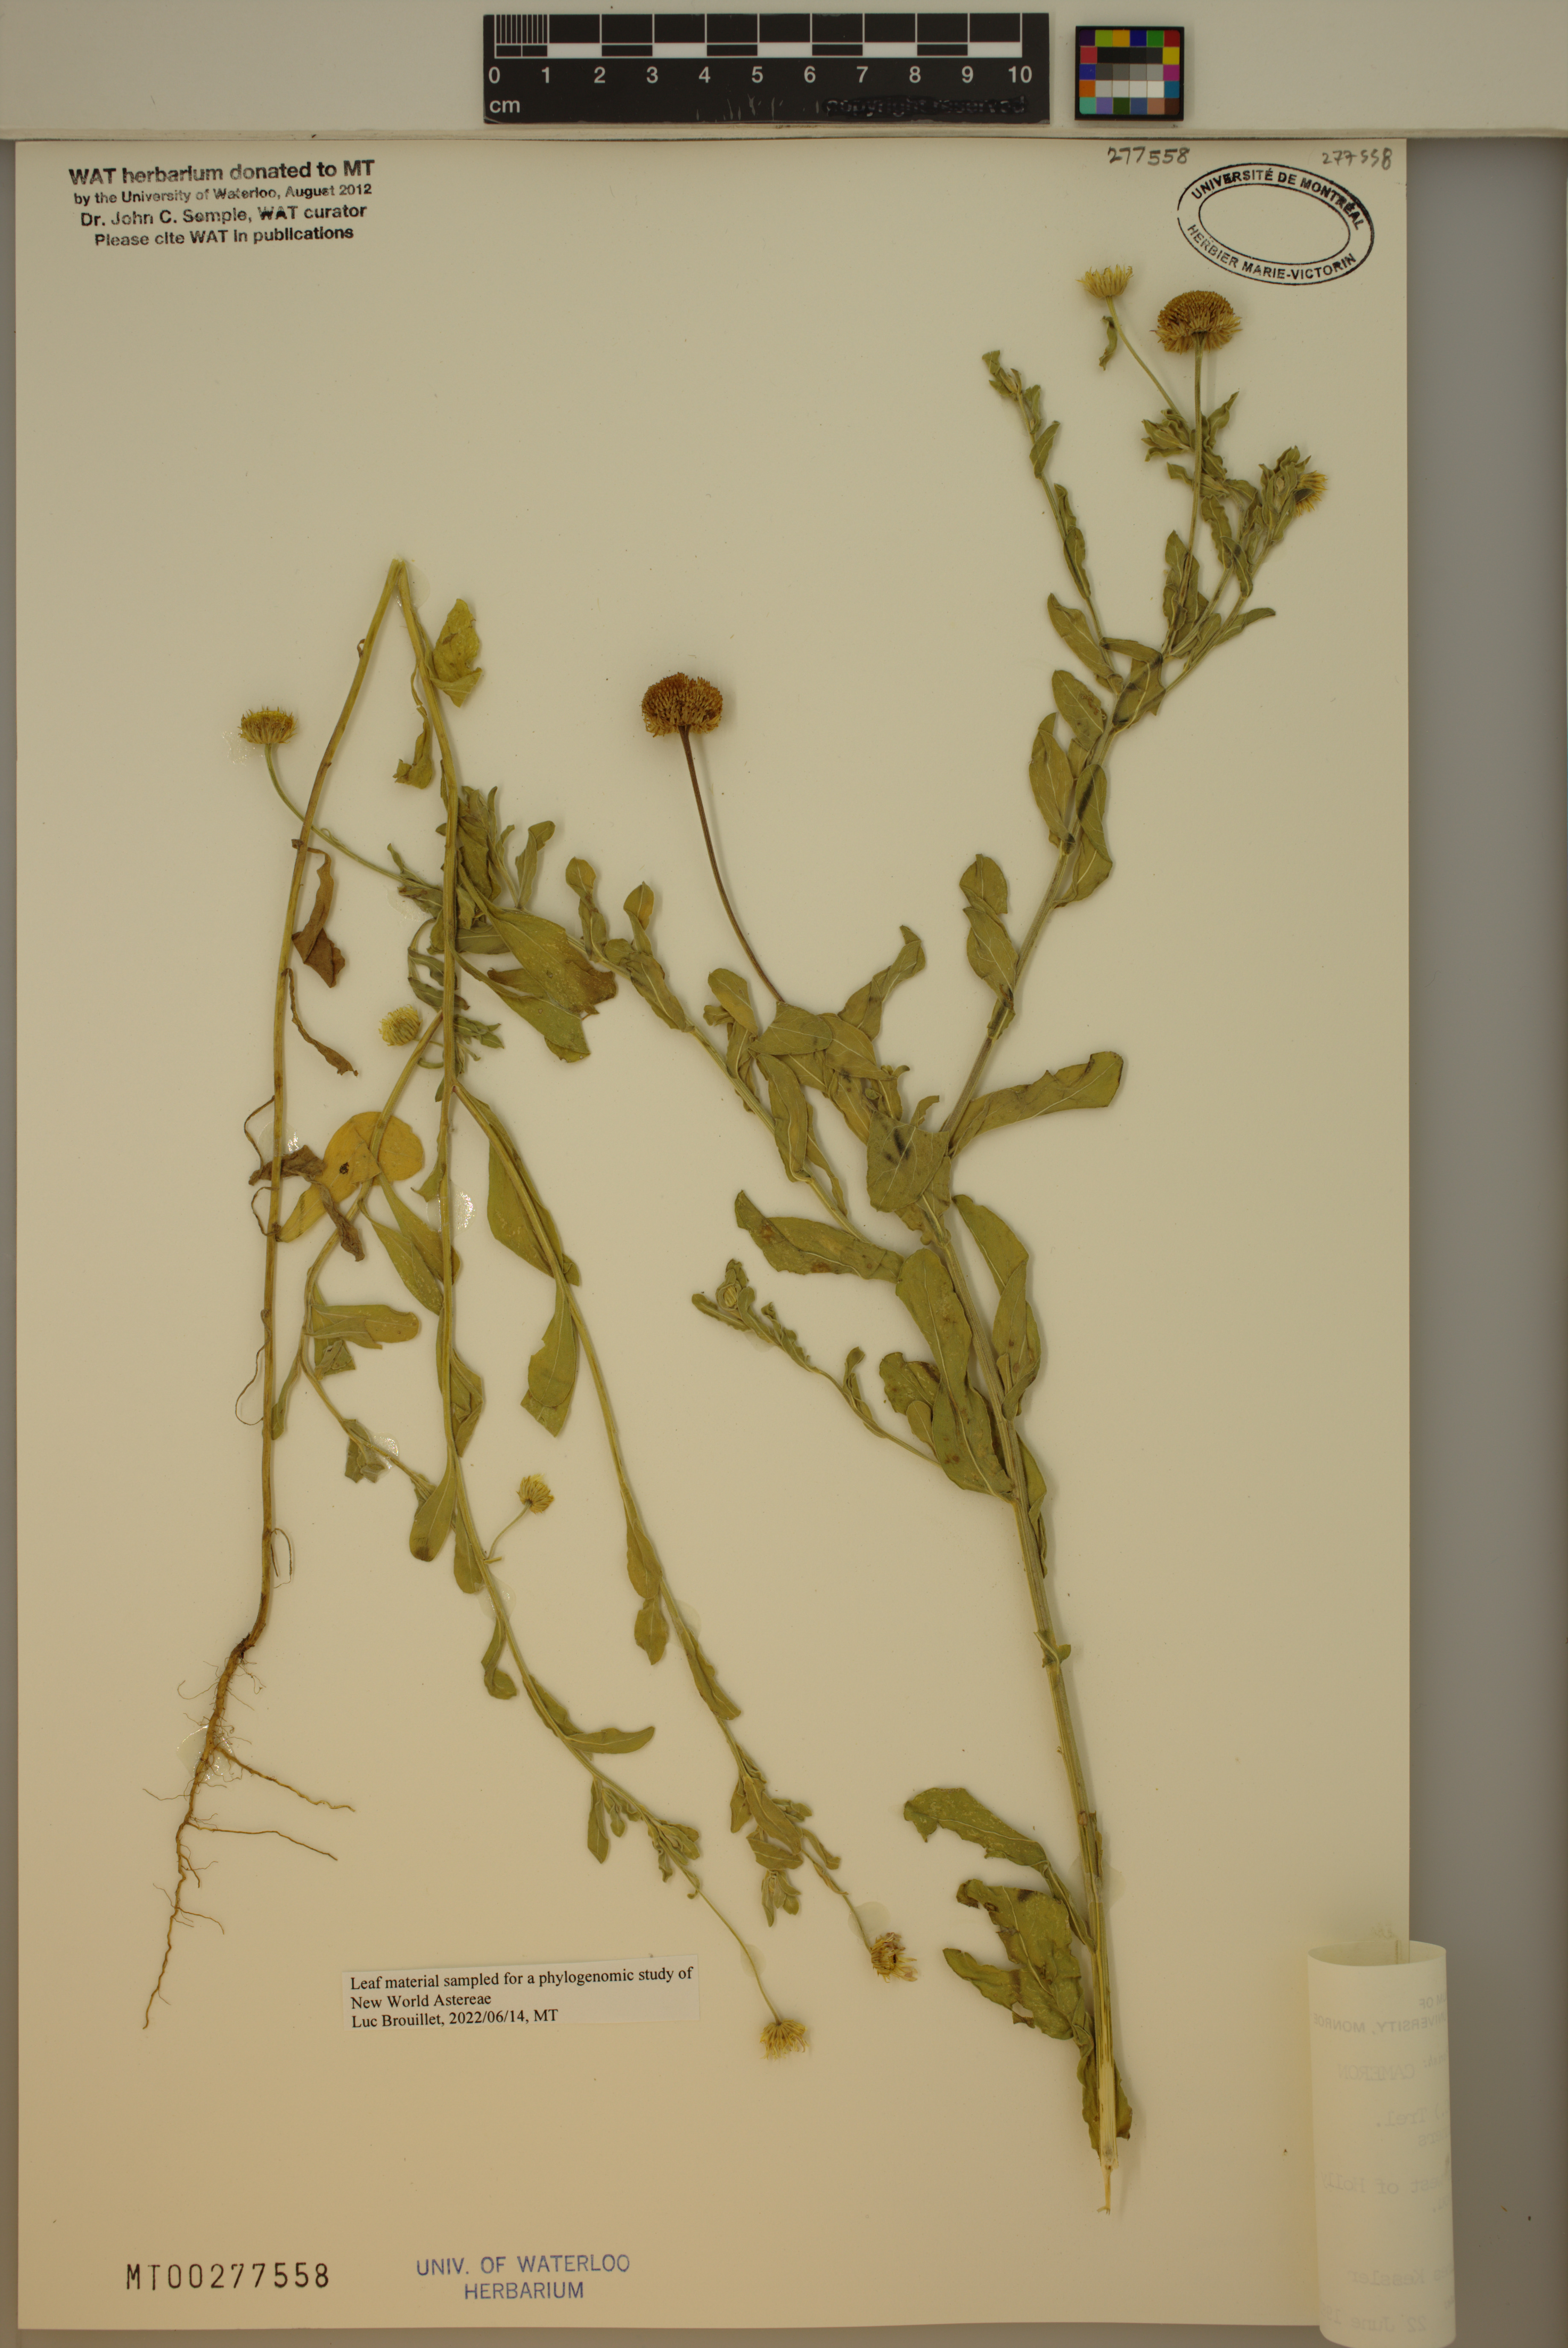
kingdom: Plantae
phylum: Tracheophyta
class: Magnoliopsida
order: Asterales
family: Asteraceae
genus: Aphanostephus
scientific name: Aphanostephus skirrhobasis
